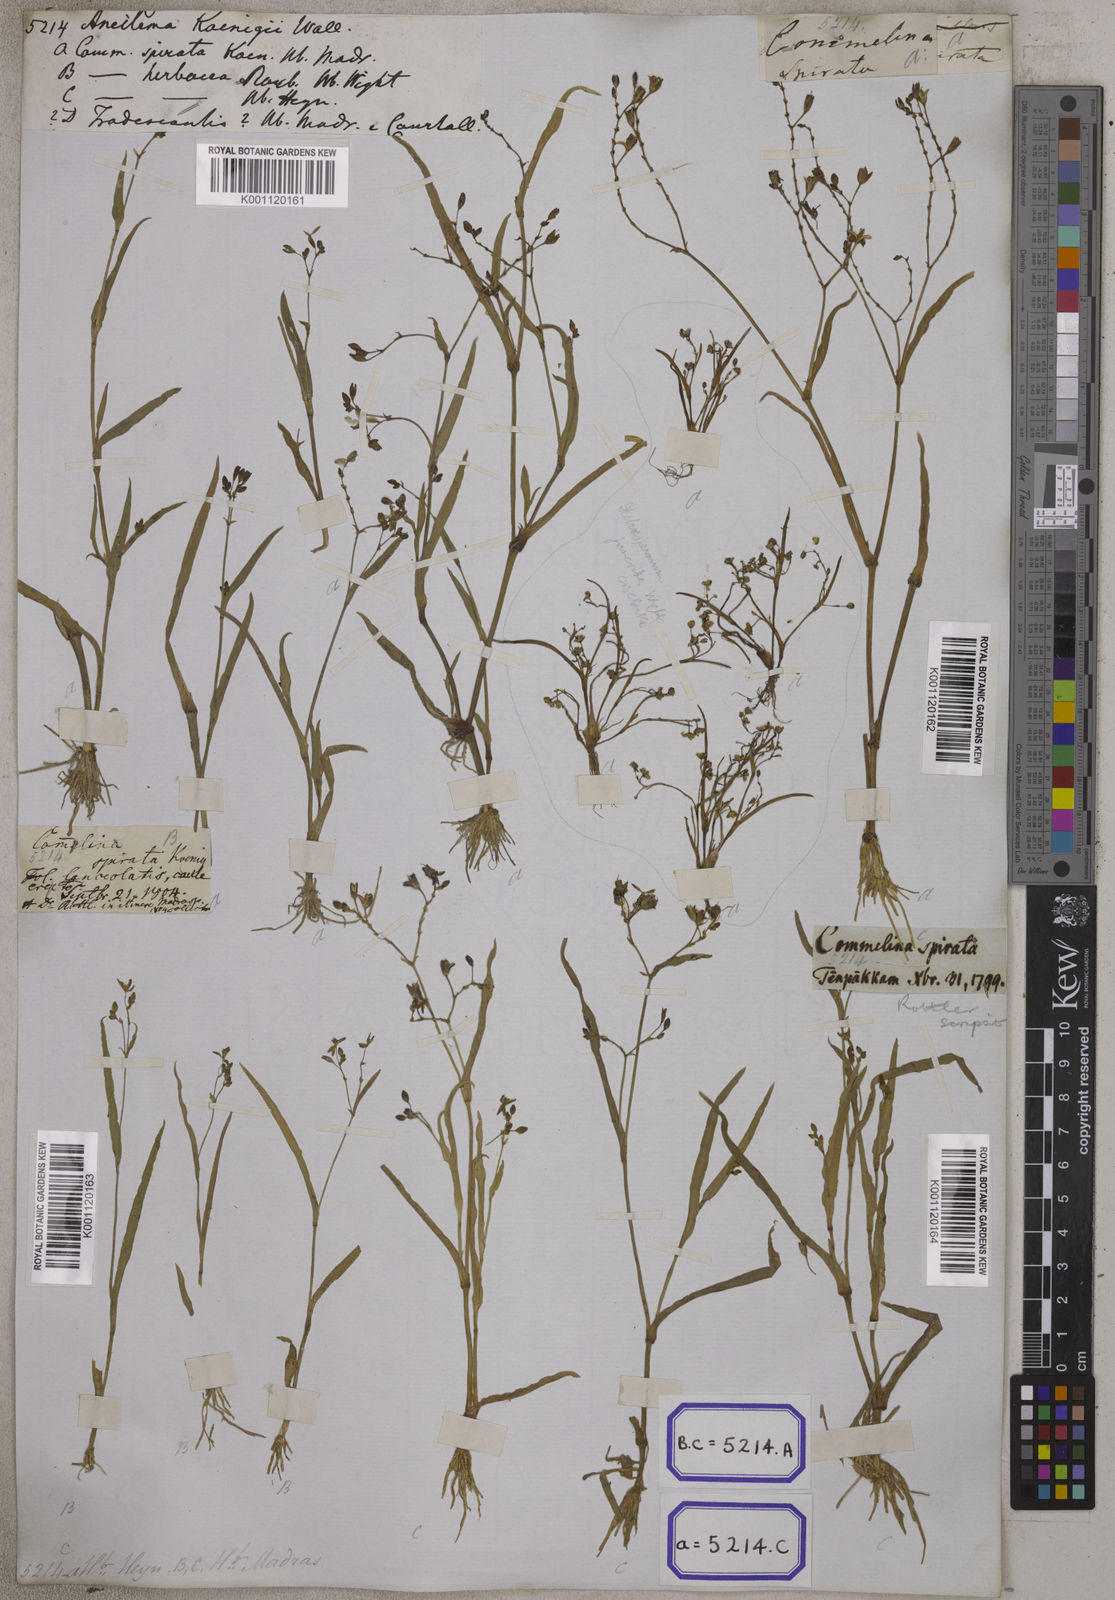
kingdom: Plantae
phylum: Tracheophyta
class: Liliopsida
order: Commelinales
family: Commelinaceae
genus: Aneilema
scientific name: Aneilema
